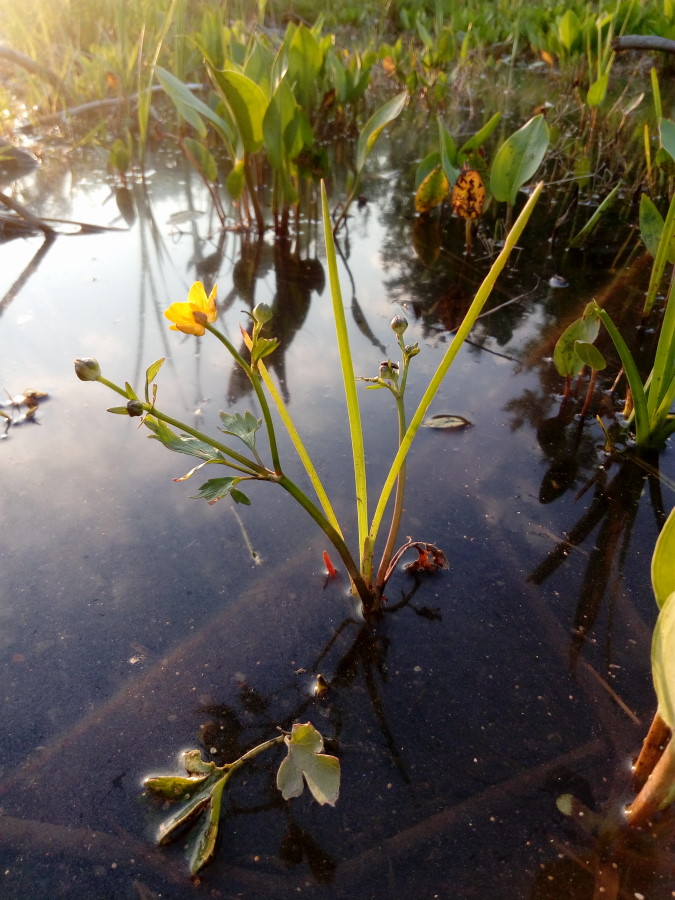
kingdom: Plantae
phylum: Tracheophyta
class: Magnoliopsida
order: Ranunculales
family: Ranunculaceae
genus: Ranunculus
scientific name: Ranunculus repens
